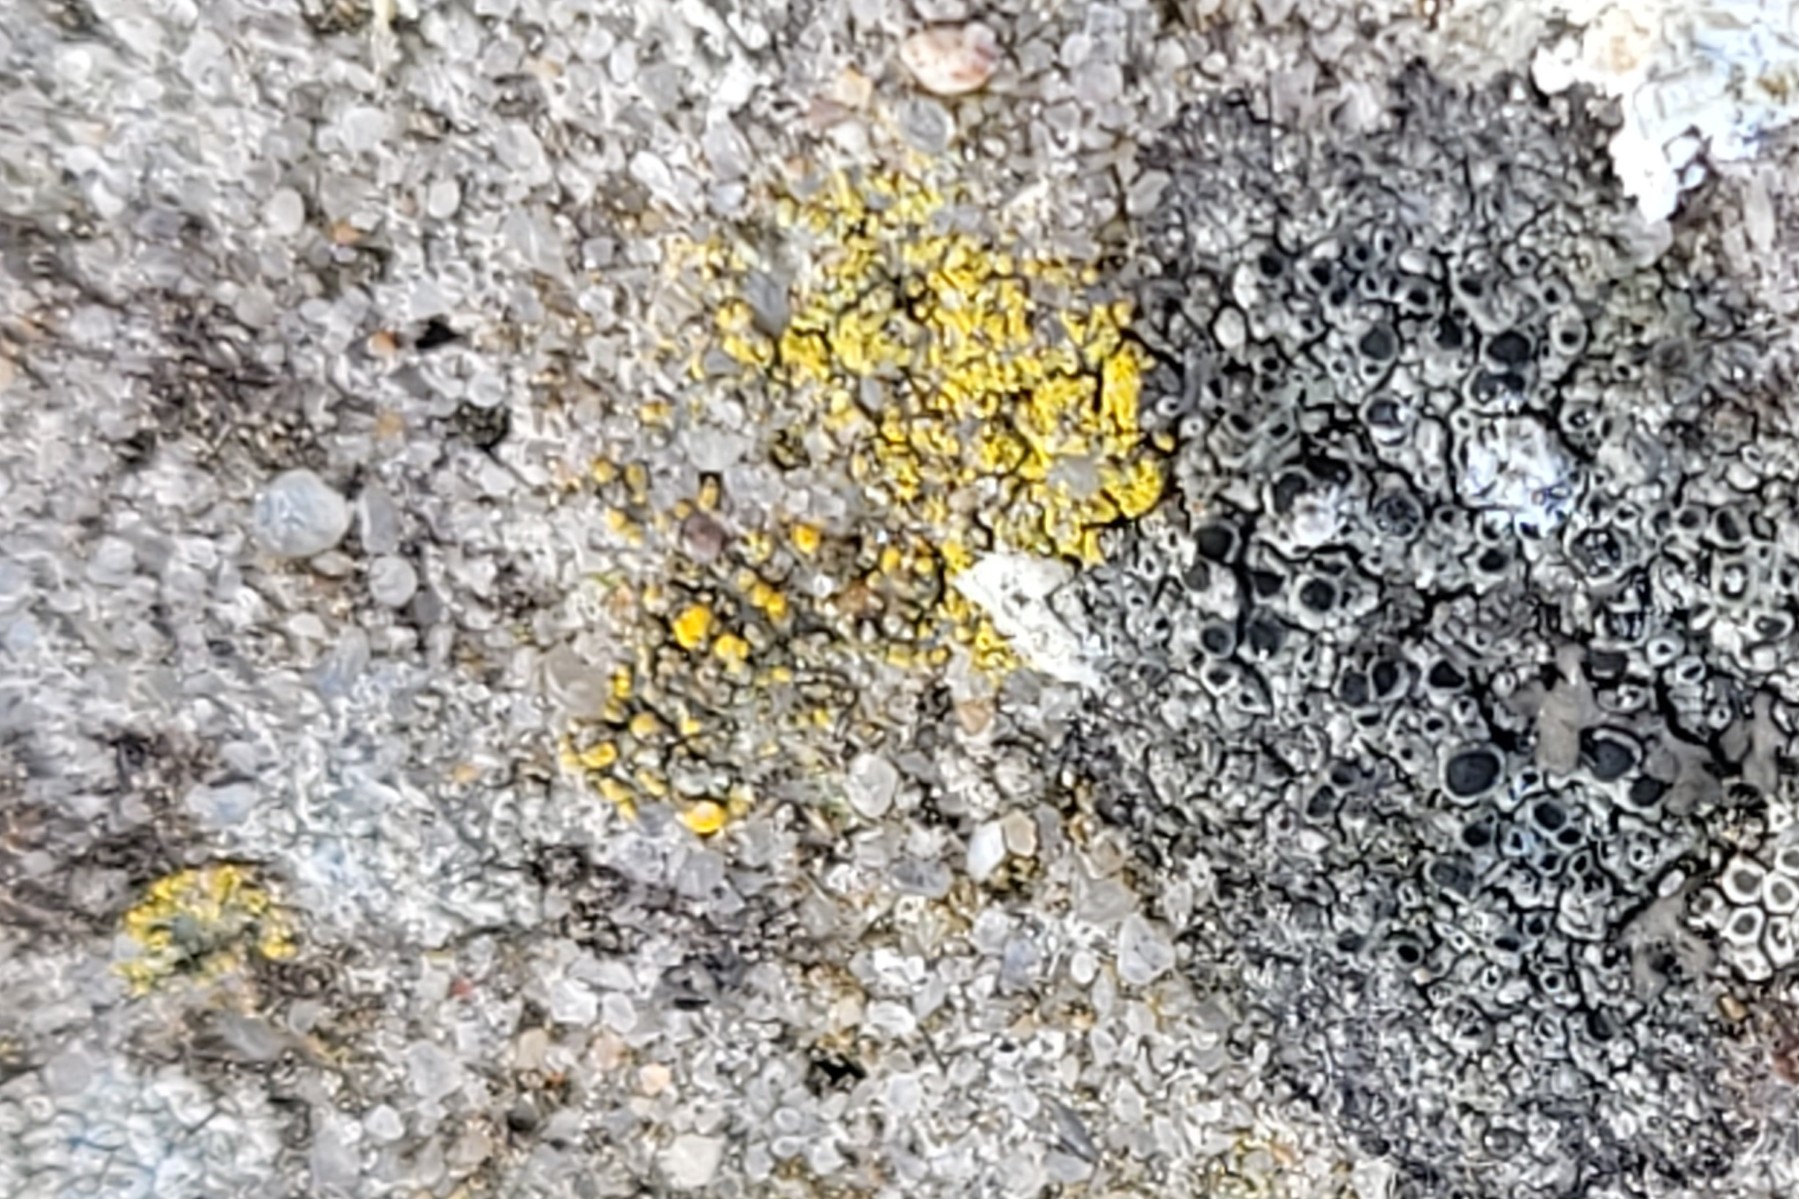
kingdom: Fungi
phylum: Ascomycota
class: Lecanoromycetes
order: Teloschistales
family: Teloschistaceae
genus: Flavoplaca
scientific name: Flavoplaca citrina
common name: støvet orangelav
